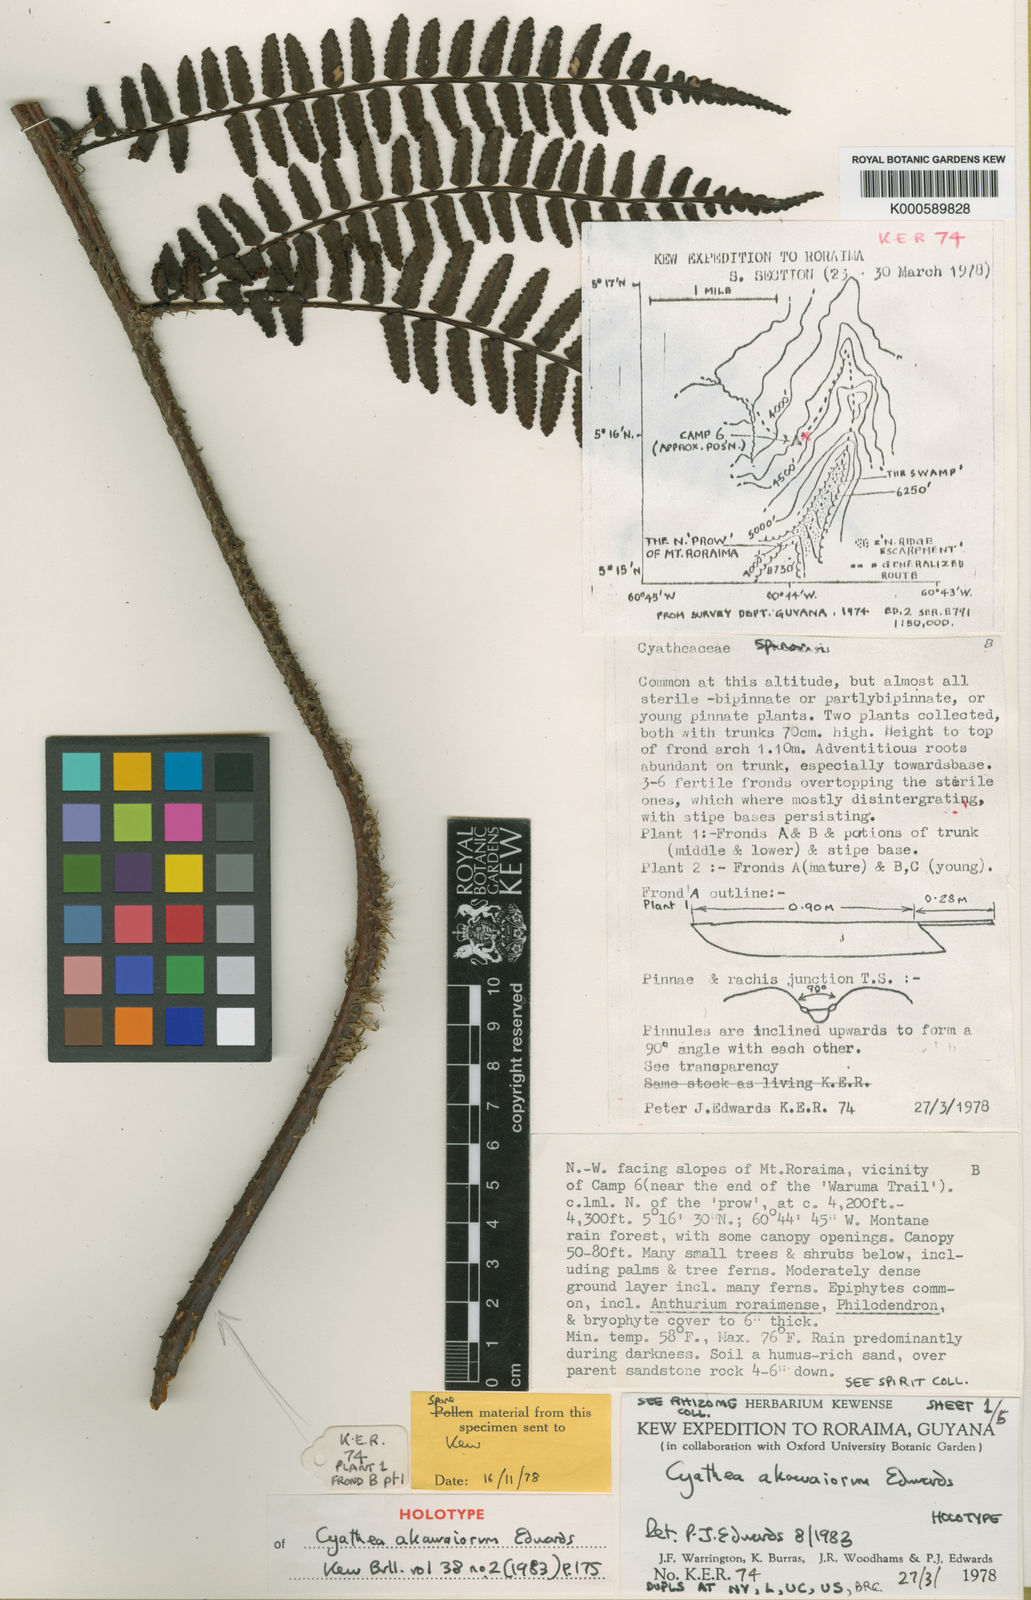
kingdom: Plantae
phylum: Tracheophyta
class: Polypodiopsida
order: Cyatheales
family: Cyatheaceae
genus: Cyathea
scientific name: Cyathea akawaiorum
